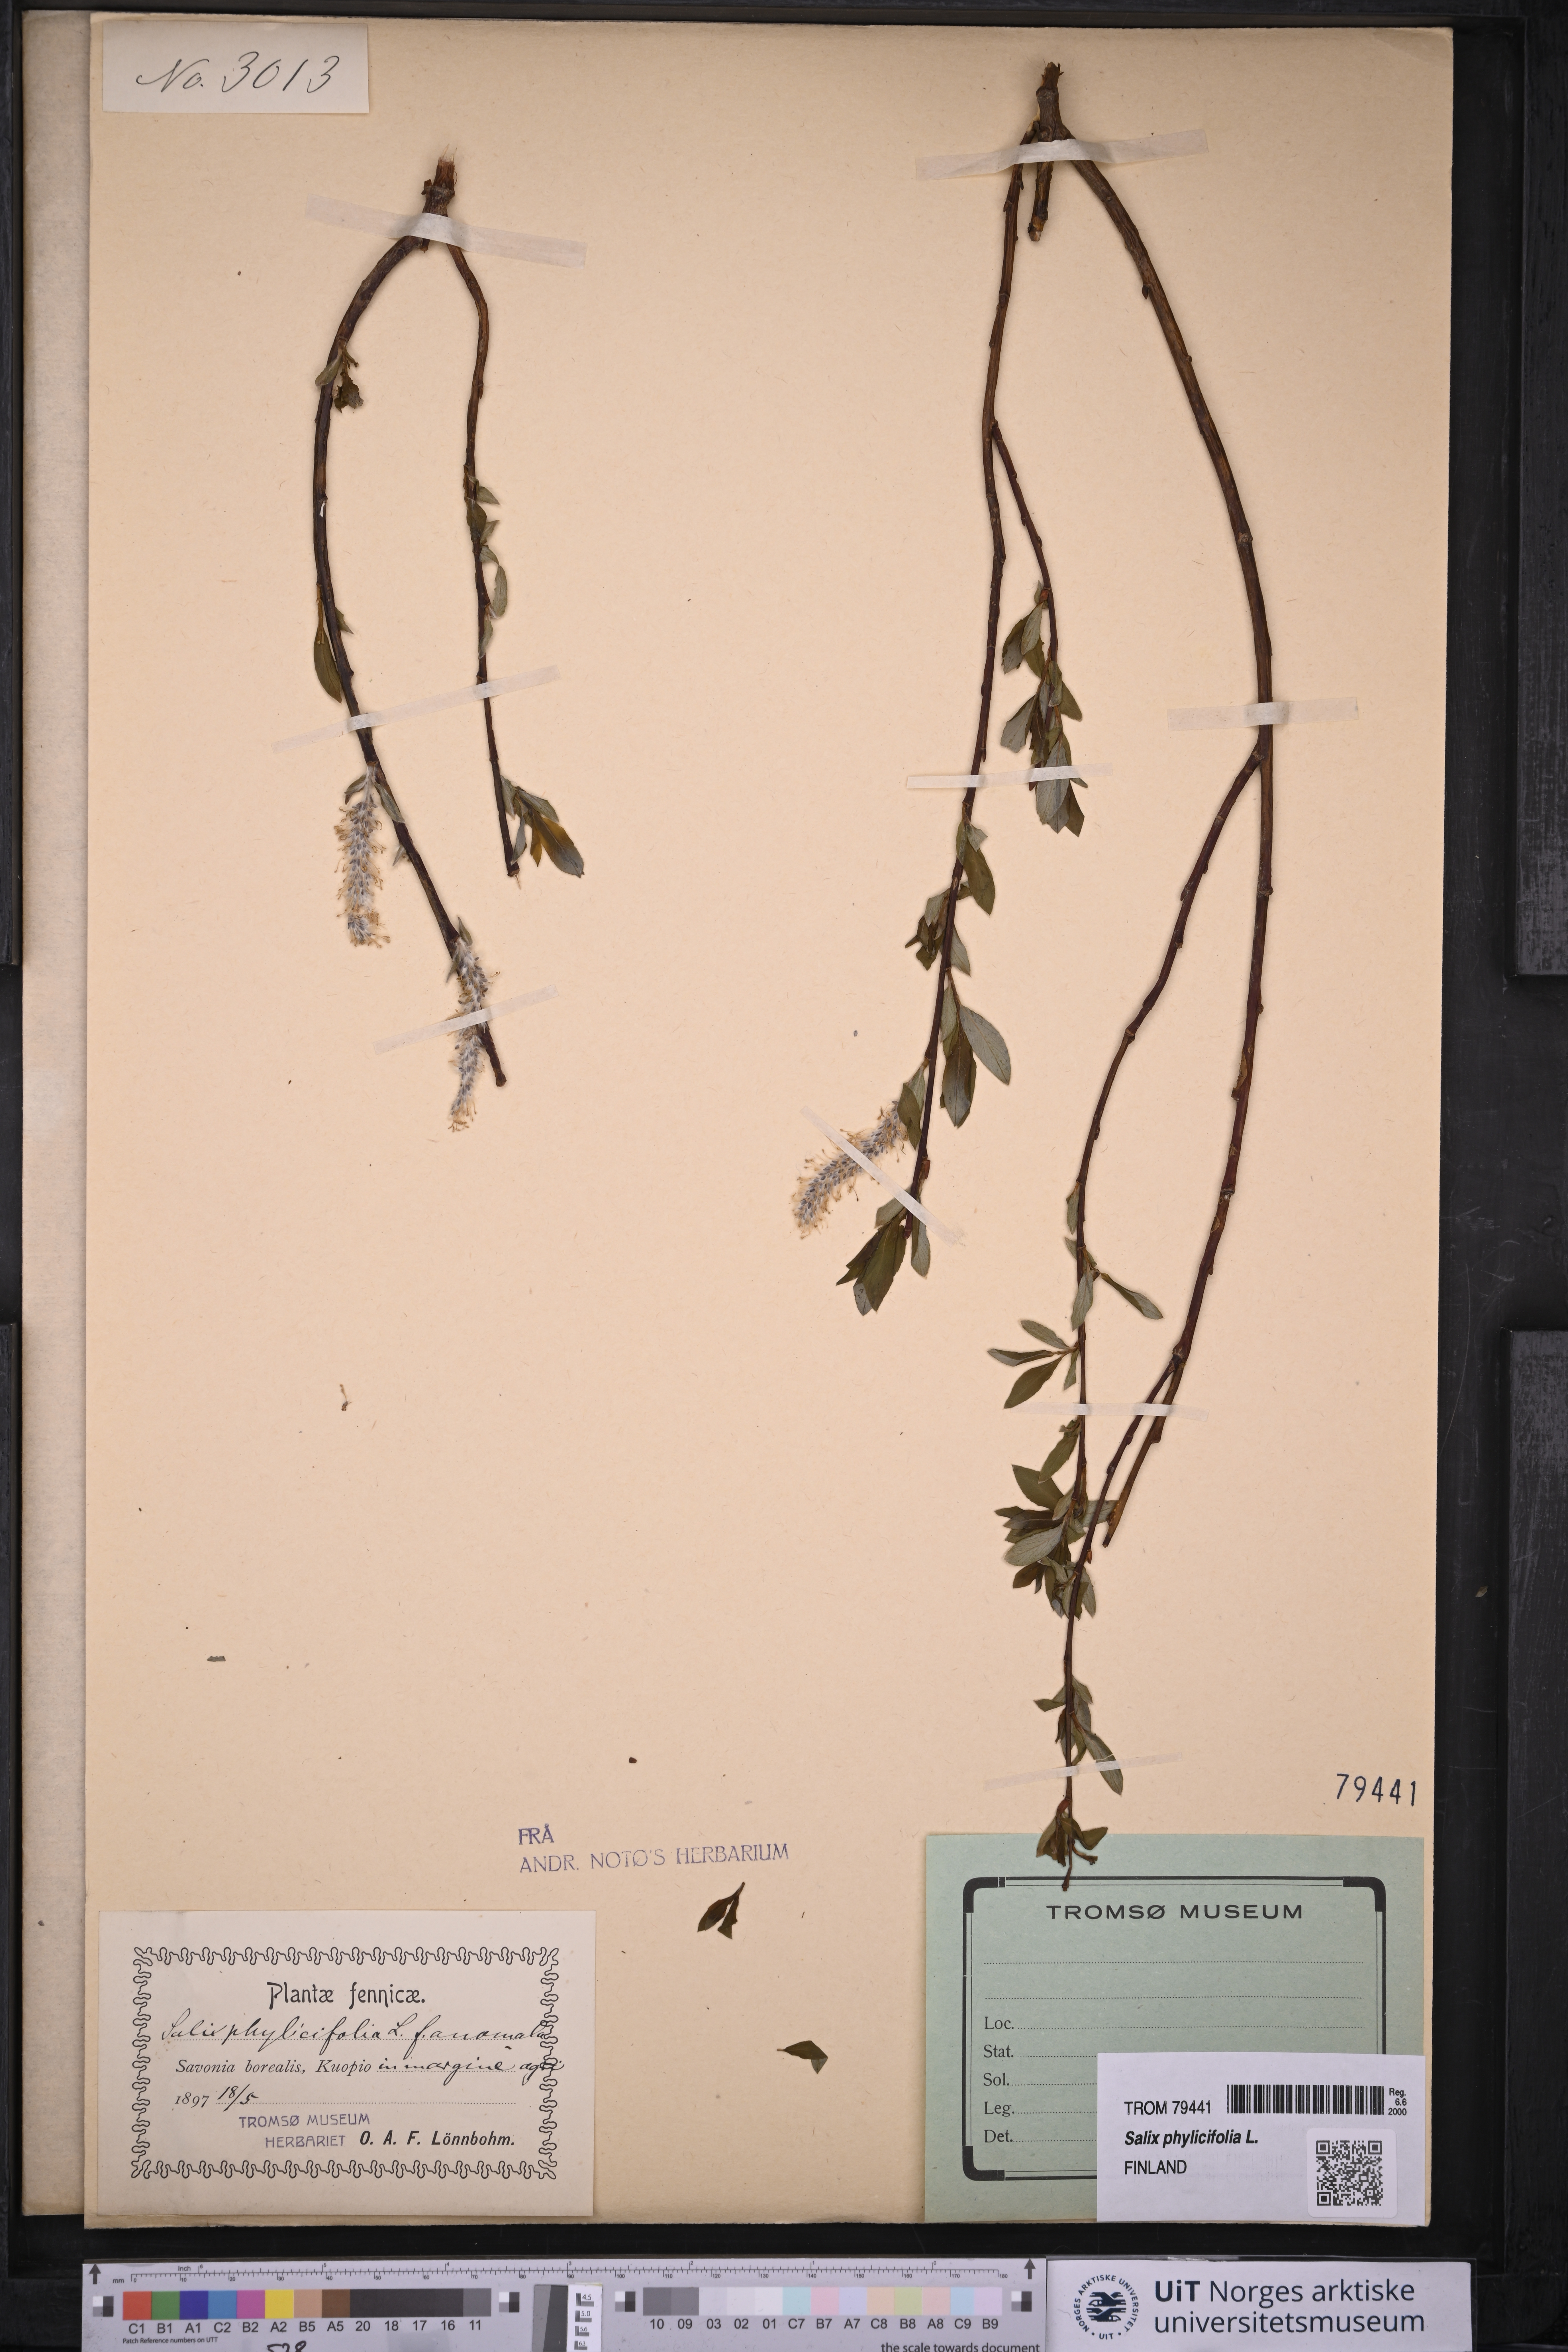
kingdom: Plantae
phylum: Tracheophyta
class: Magnoliopsida
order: Malpighiales
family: Salicaceae
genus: Salix
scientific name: Salix phylicifolia
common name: Tea-leaved willow
